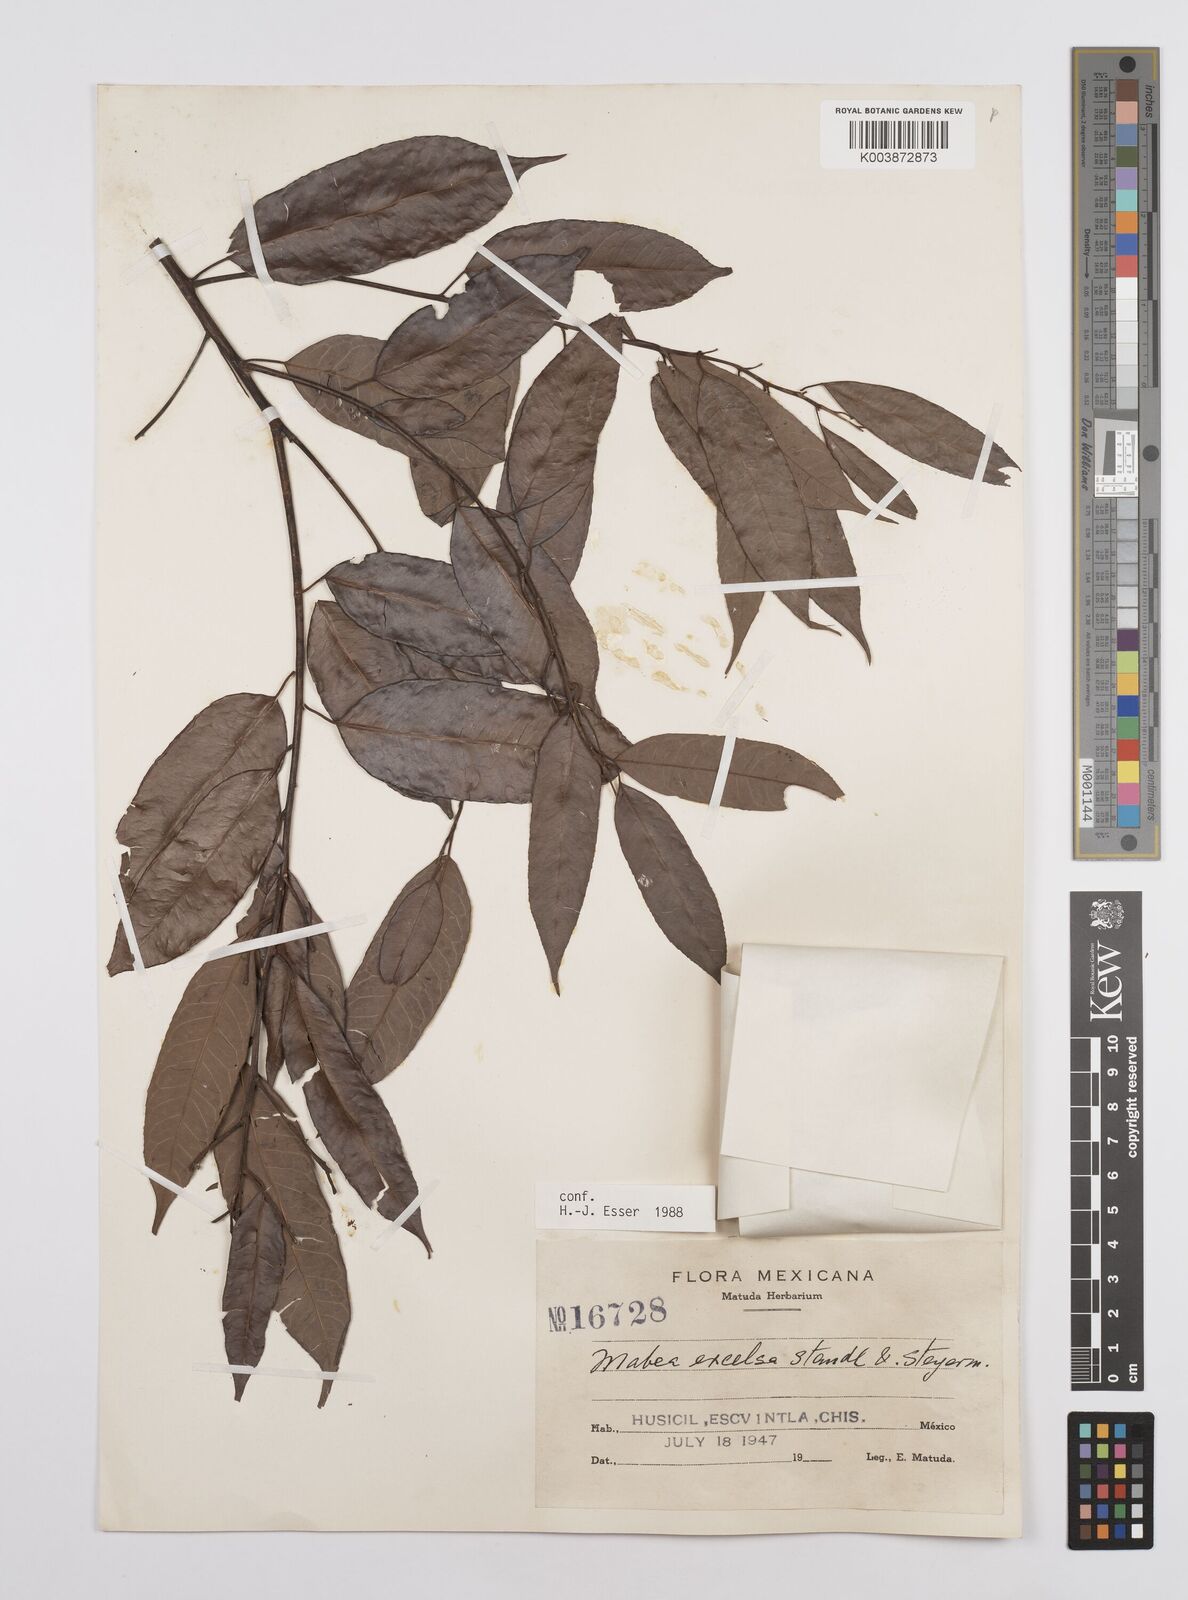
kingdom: Plantae
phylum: Tracheophyta
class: Magnoliopsida
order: Malpighiales
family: Euphorbiaceae
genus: Mabea
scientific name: Mabea excelsa
